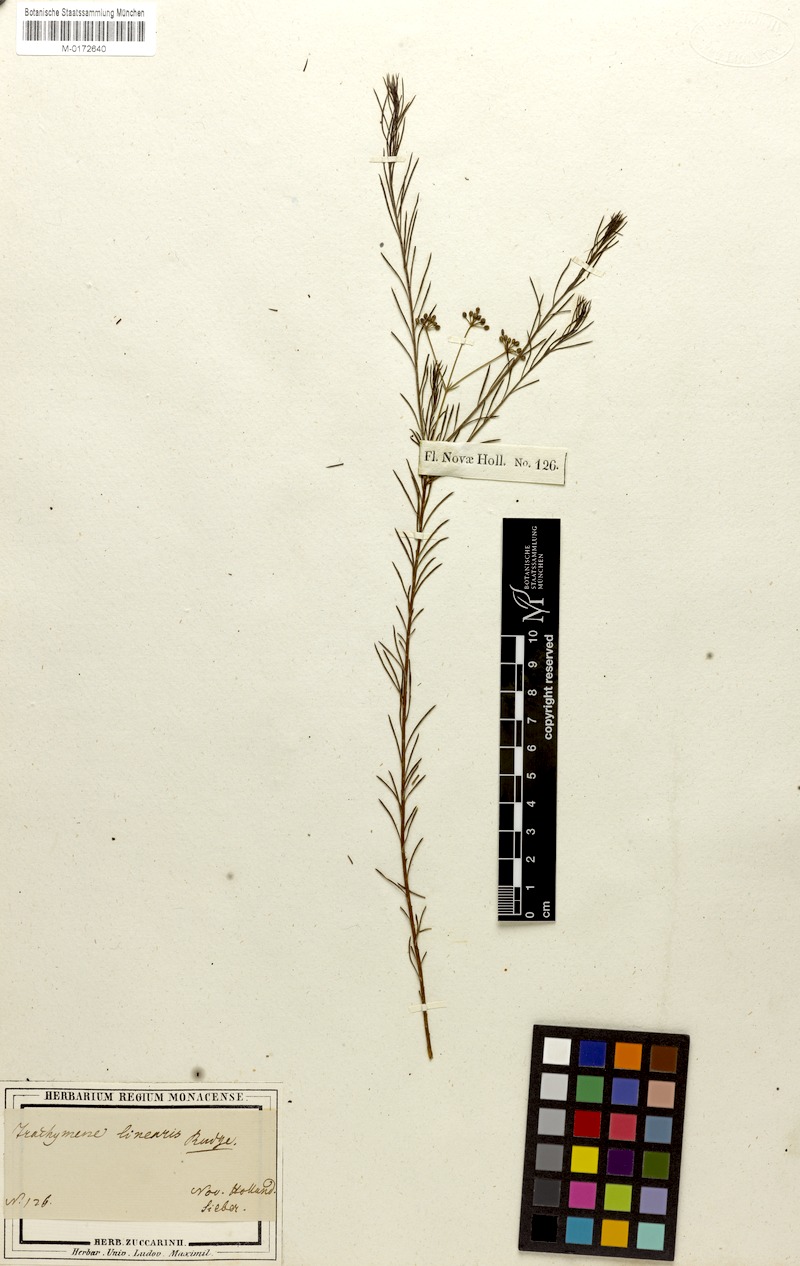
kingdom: Plantae
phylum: Tracheophyta
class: Magnoliopsida
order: Apiales
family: Apiaceae
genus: Platysace
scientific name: Platysace linearifolia
